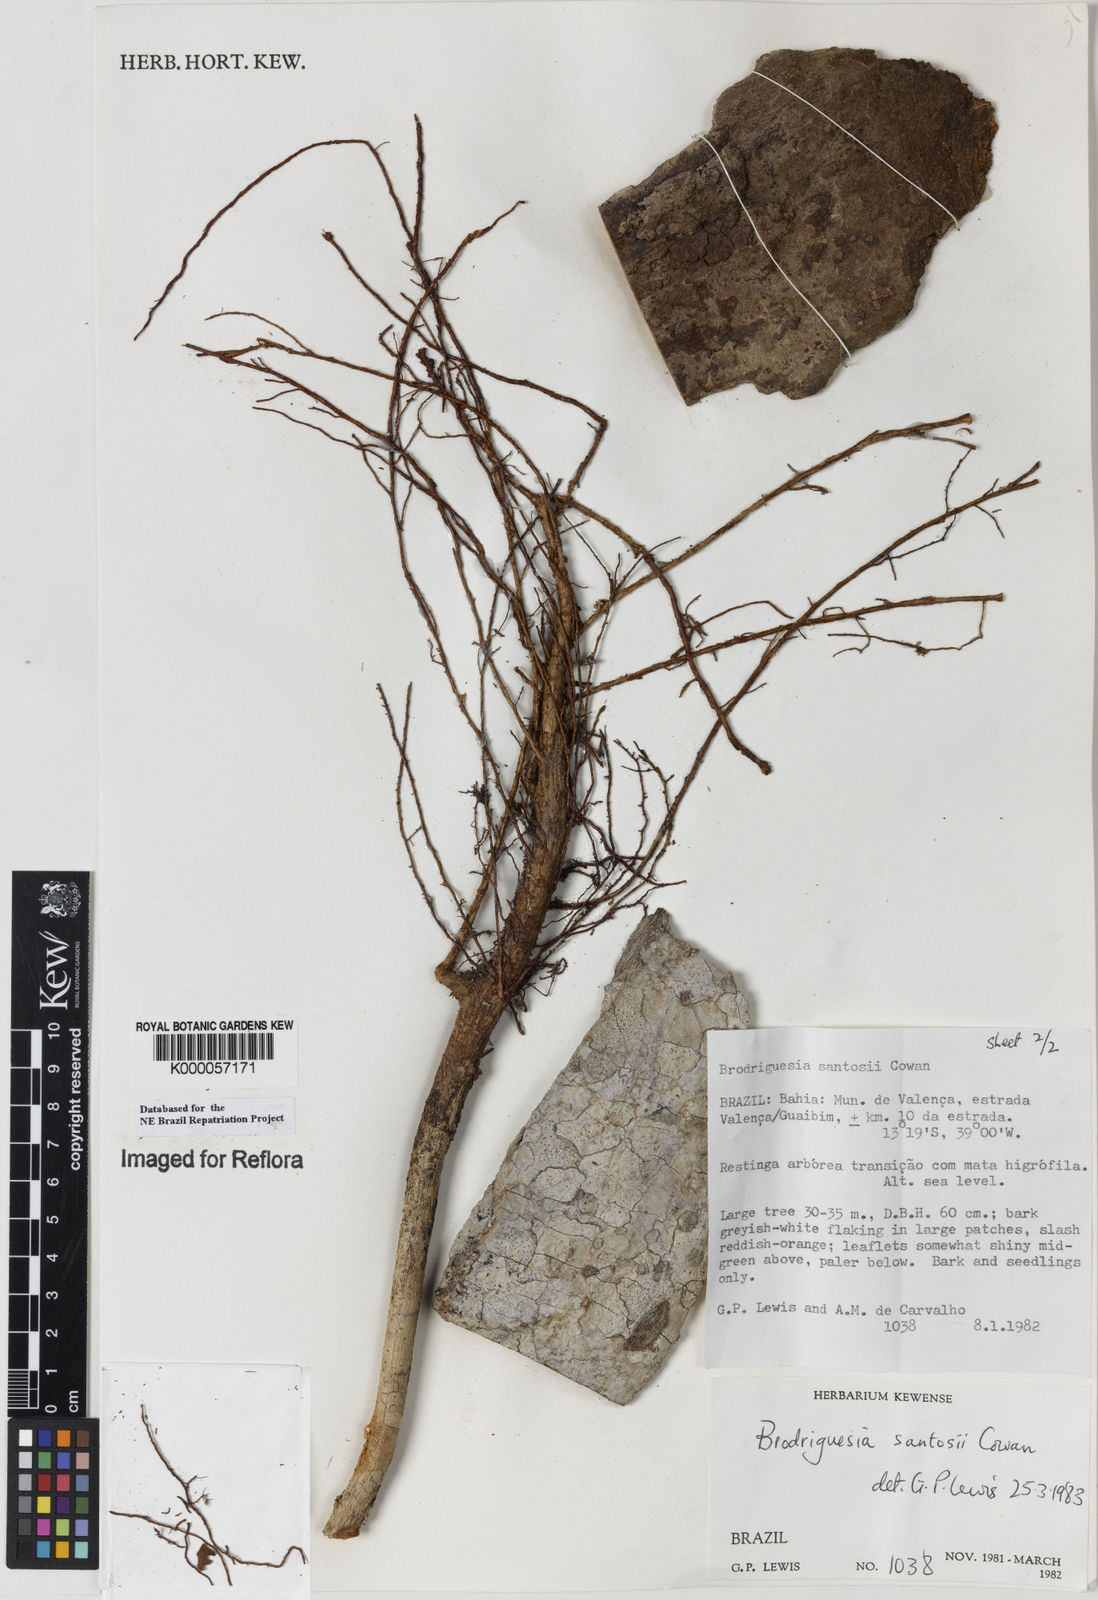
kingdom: Plantae
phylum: Tracheophyta
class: Magnoliopsida
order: Fabales
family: Fabaceae
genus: Brodriguesia
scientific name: Brodriguesia santosii
